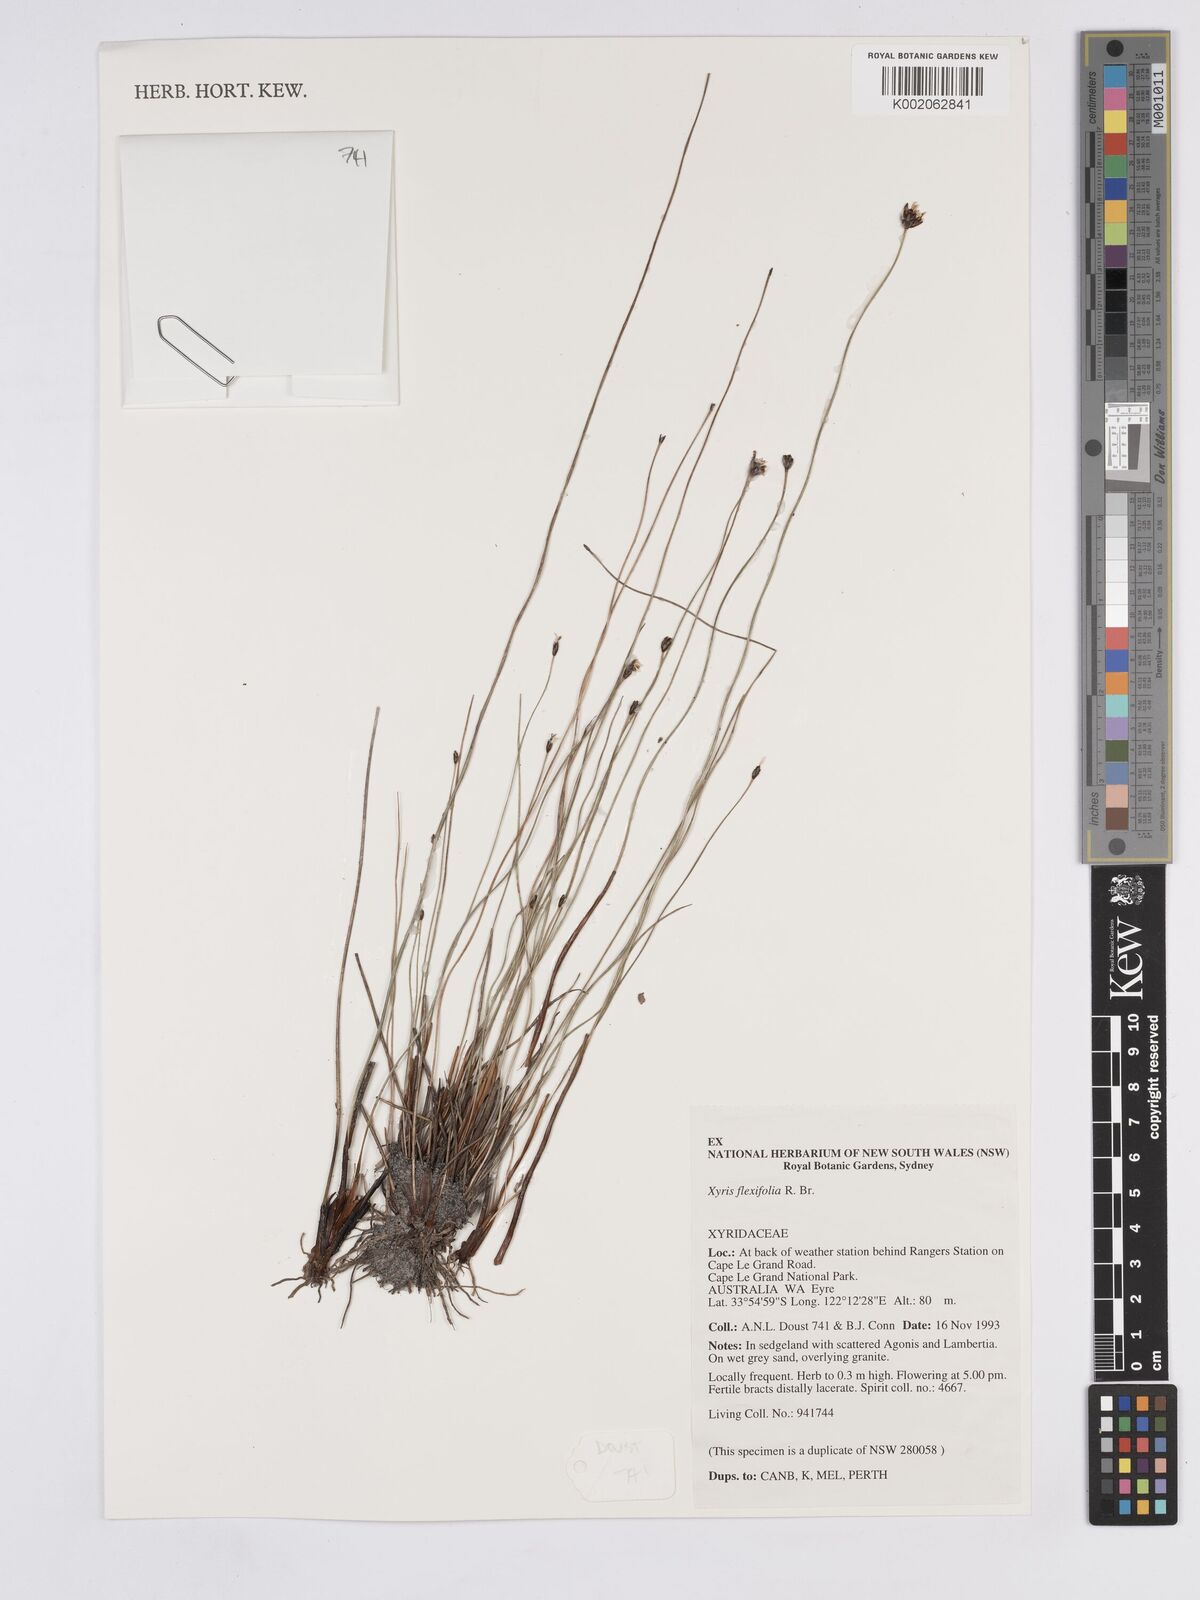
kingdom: Plantae
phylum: Tracheophyta
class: Liliopsida
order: Poales
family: Xyridaceae
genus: Xyris
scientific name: Xyris flexifolia
